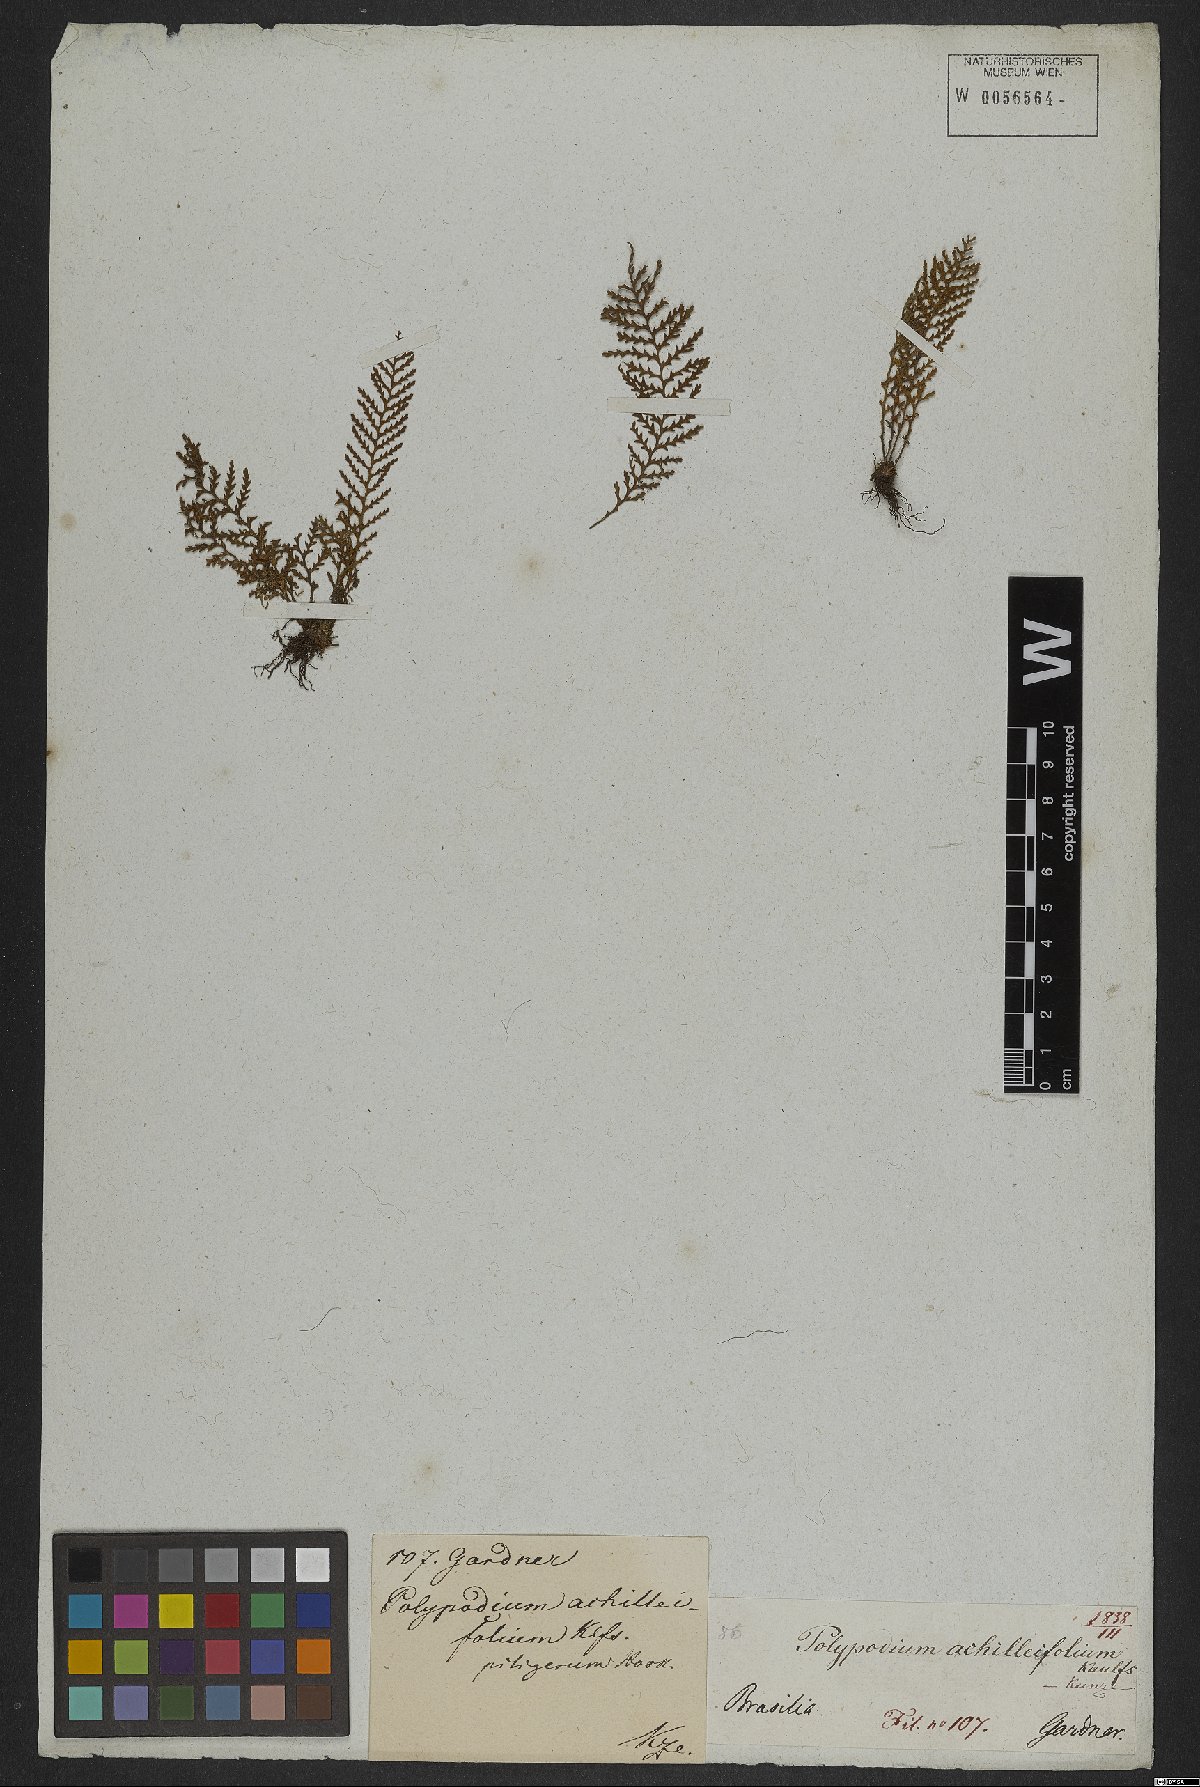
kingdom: Plantae
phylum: Tracheophyta
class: Polypodiopsida
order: Polypodiales
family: Polypodiaceae
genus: Moranopteris
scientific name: Moranopteris achilleifolia
